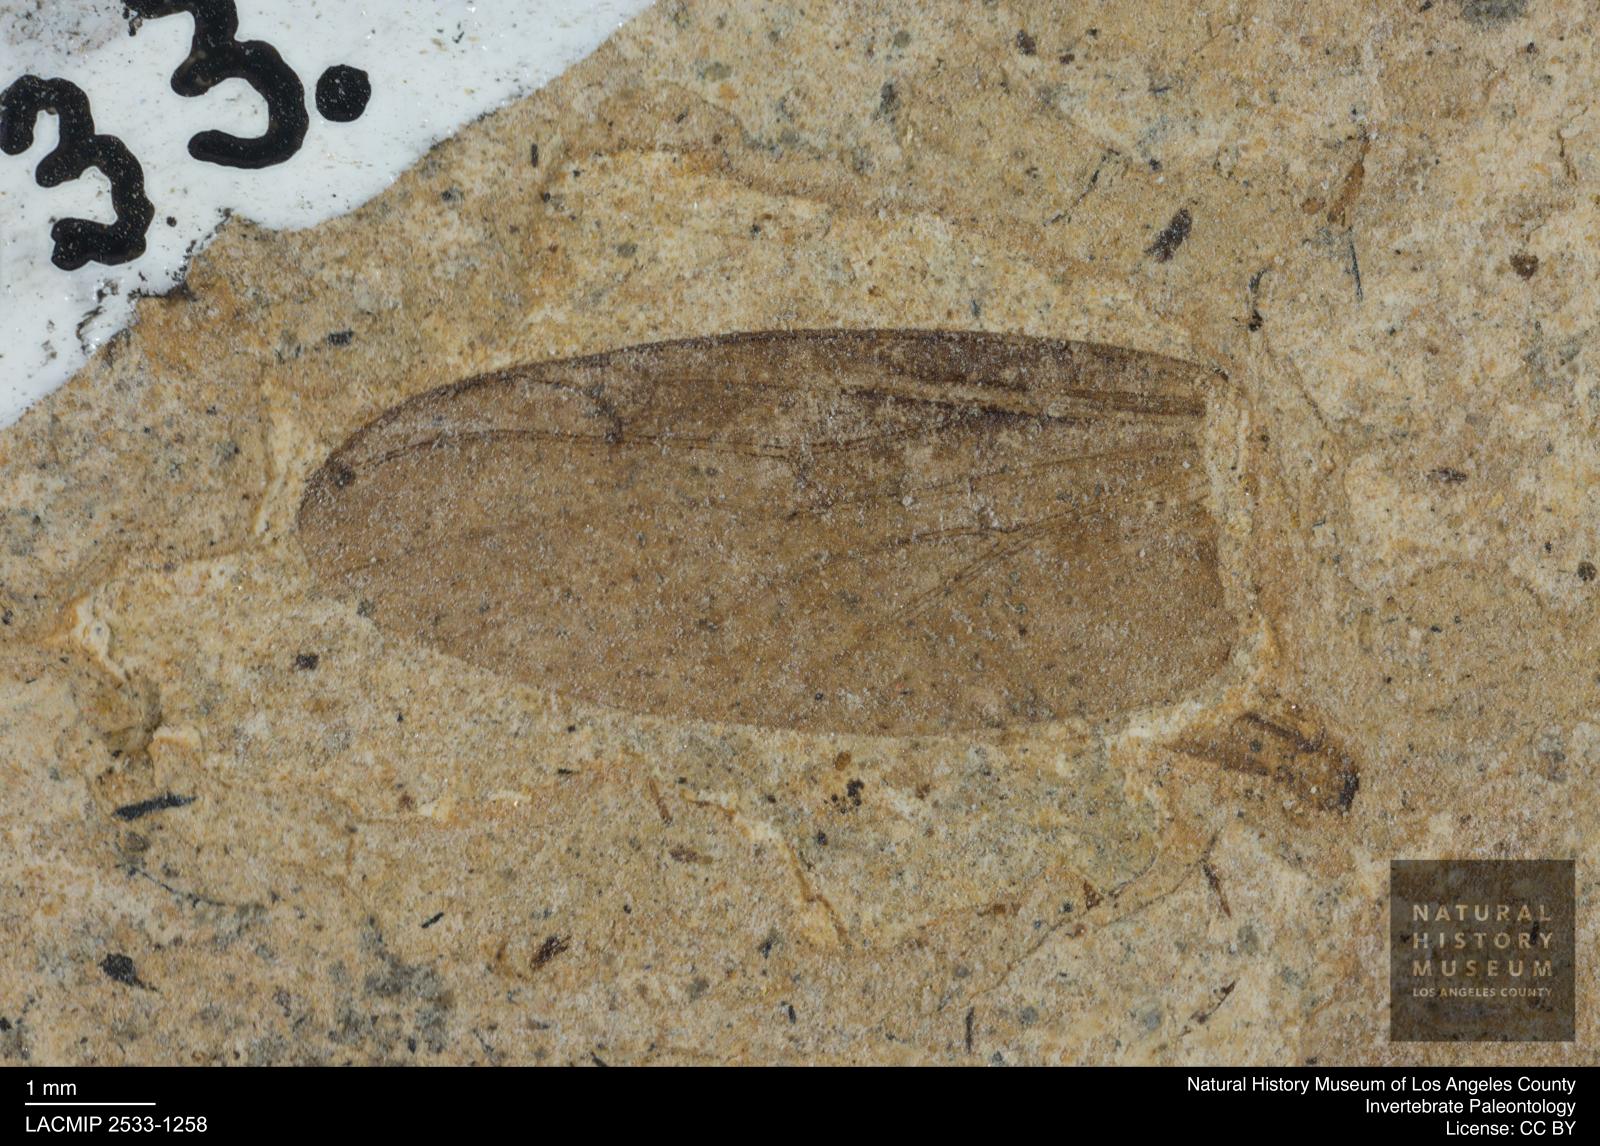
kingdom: Animalia
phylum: Arthropoda
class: Insecta
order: Diptera
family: Bibionidae
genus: Plecia
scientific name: Plecia
